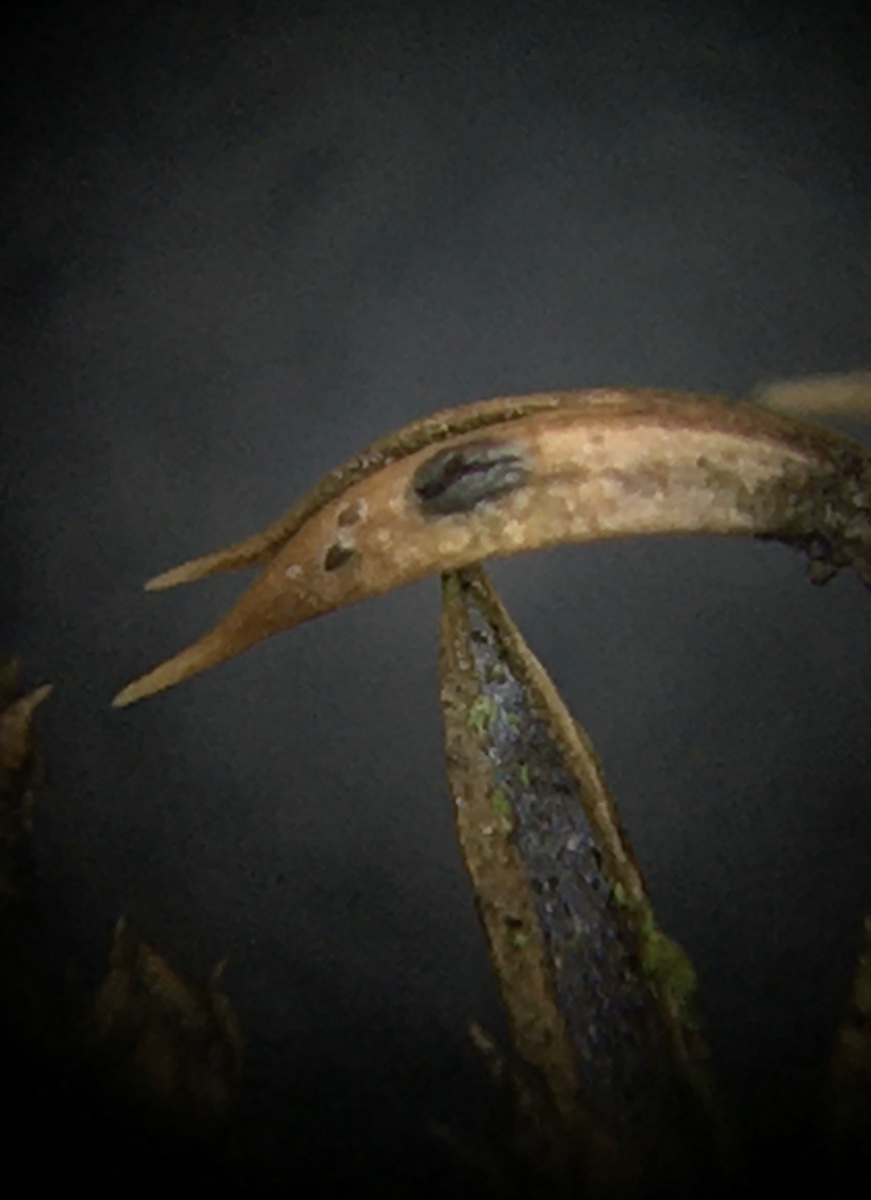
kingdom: Fungi
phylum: Ascomycota
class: Leotiomycetes
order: Rhytismatales
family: Rhytismataceae
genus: Lophodermium
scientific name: Lophodermium juniperinum
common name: ene-fureplet
